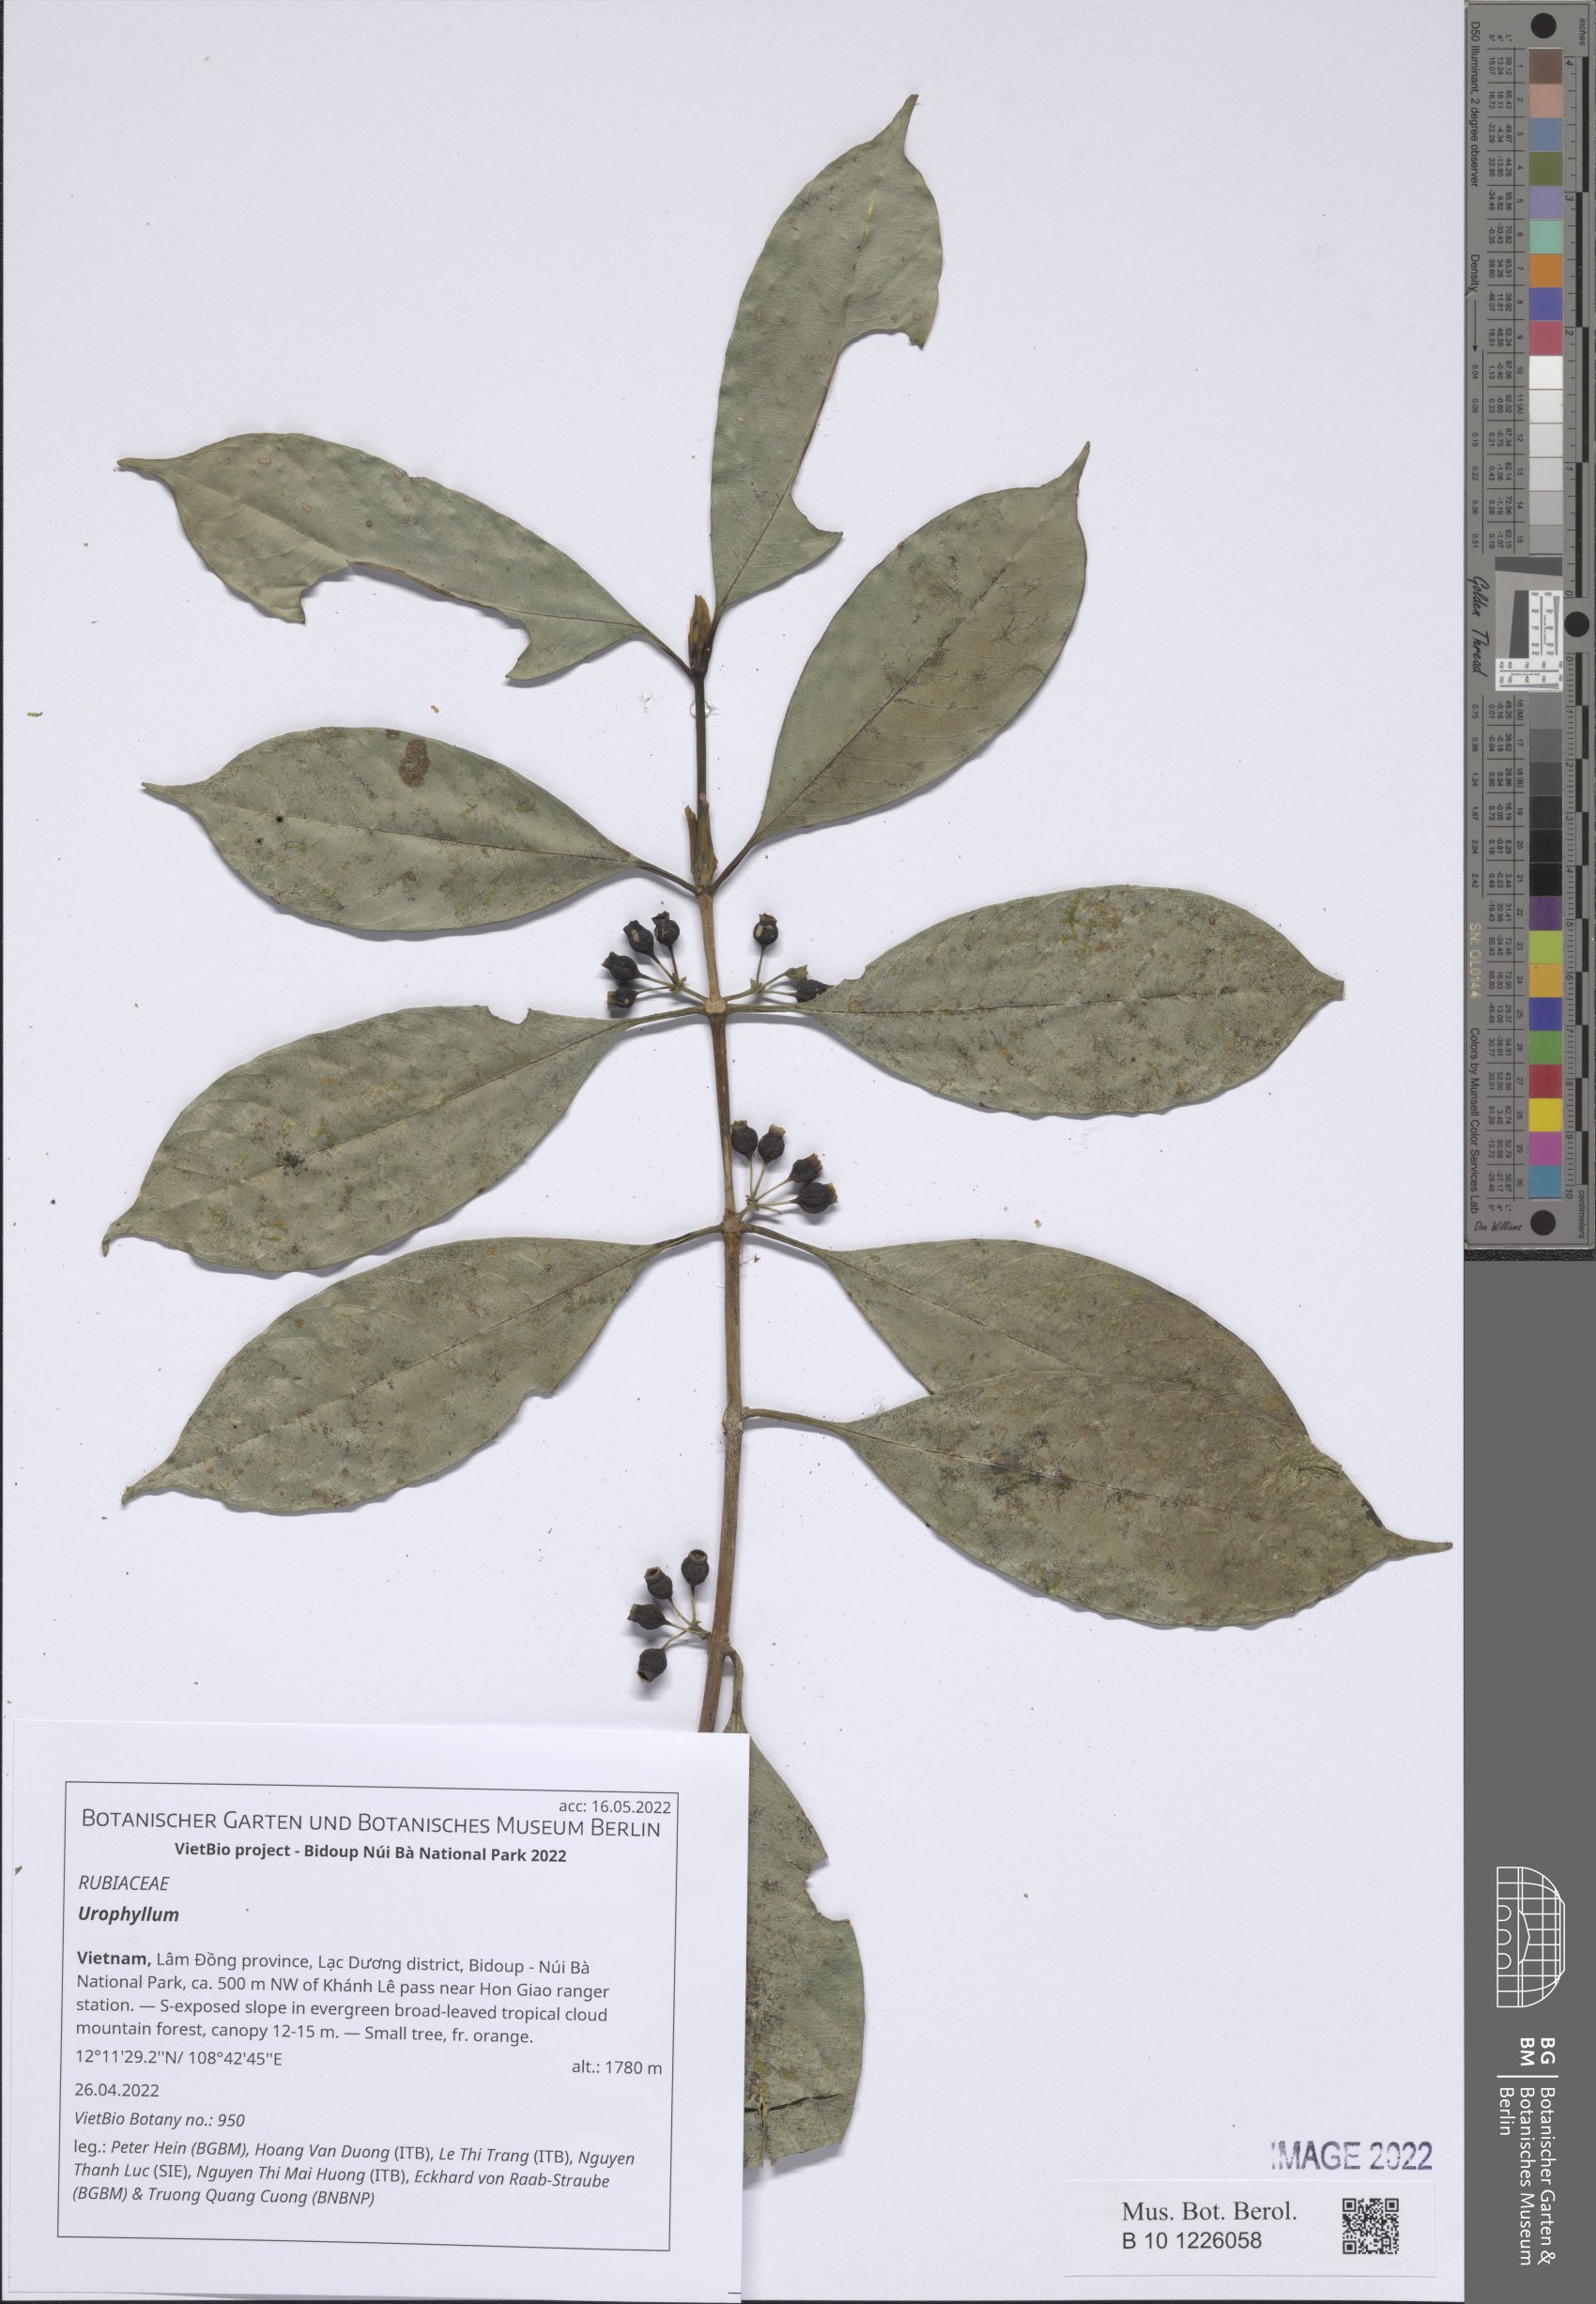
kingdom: Plantae
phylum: Tracheophyta
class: Magnoliopsida
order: Gentianales
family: Rubiaceae
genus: Urophyllum
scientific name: Urophyllum
